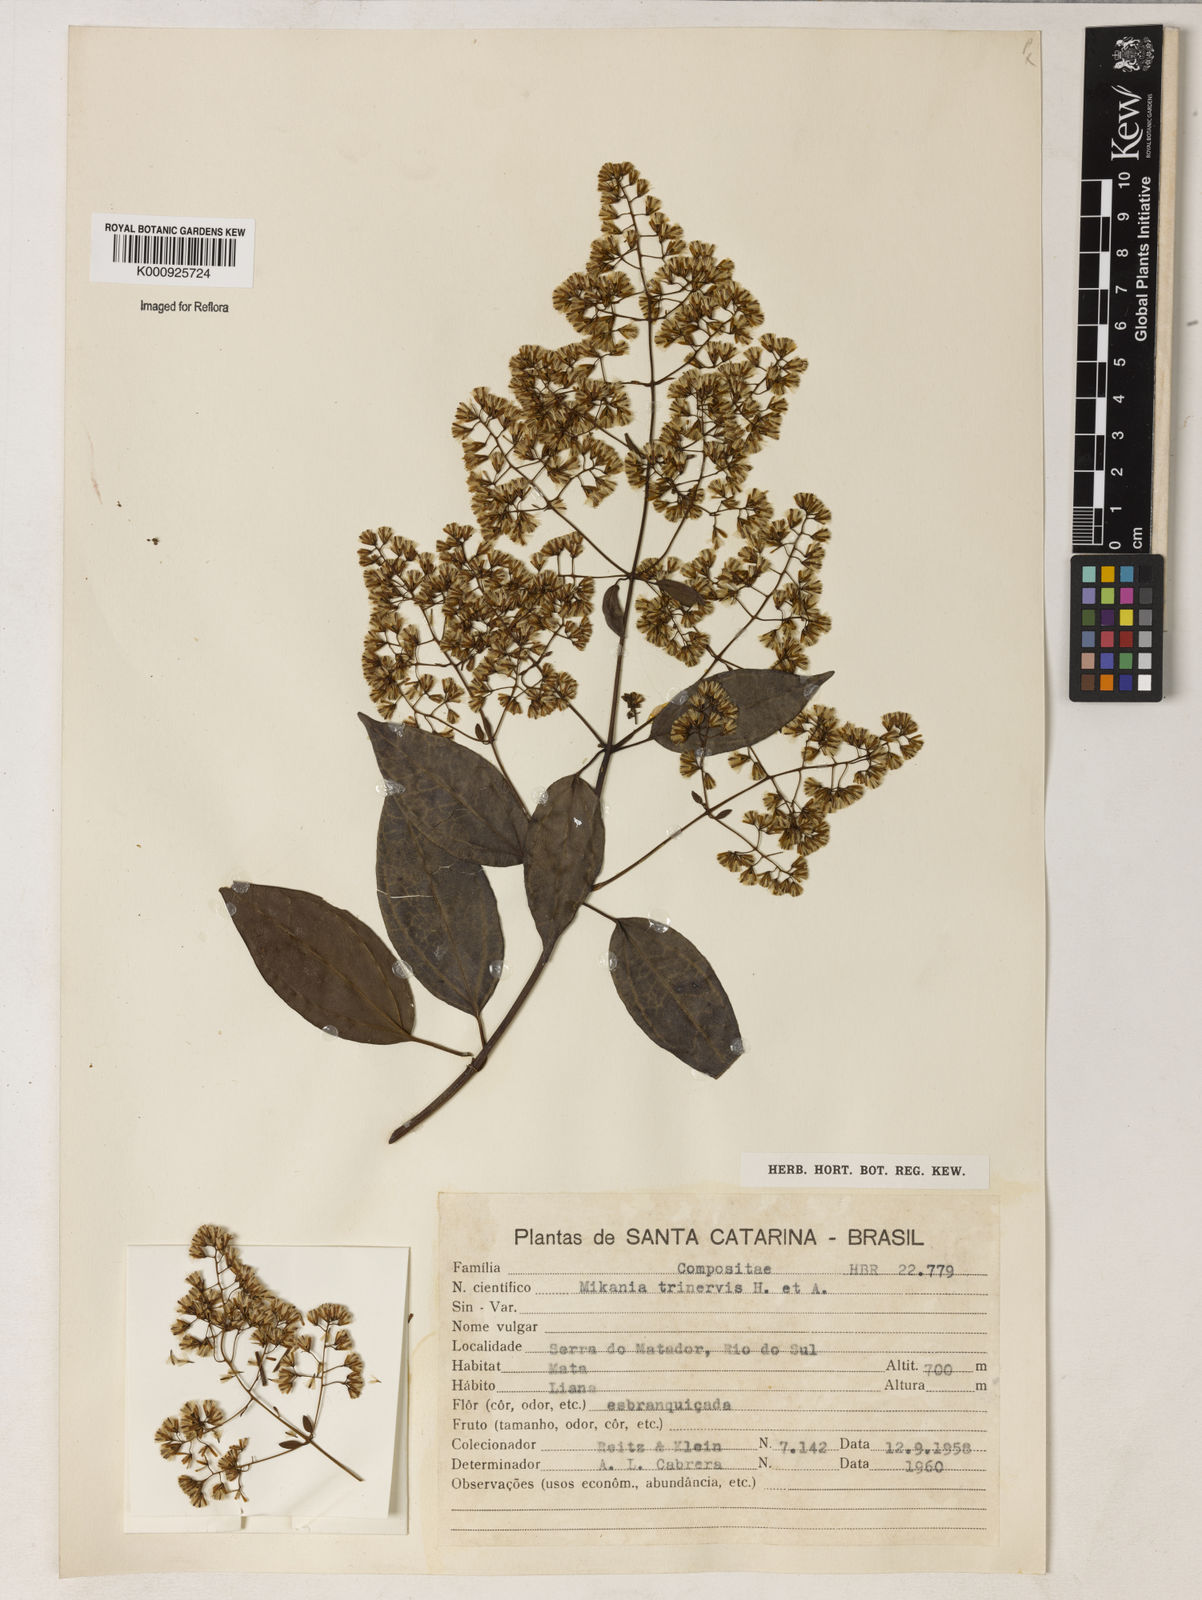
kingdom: Plantae
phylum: Tracheophyta
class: Magnoliopsida
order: Asterales
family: Asteraceae
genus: Mikania
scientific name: Mikania trinervis
